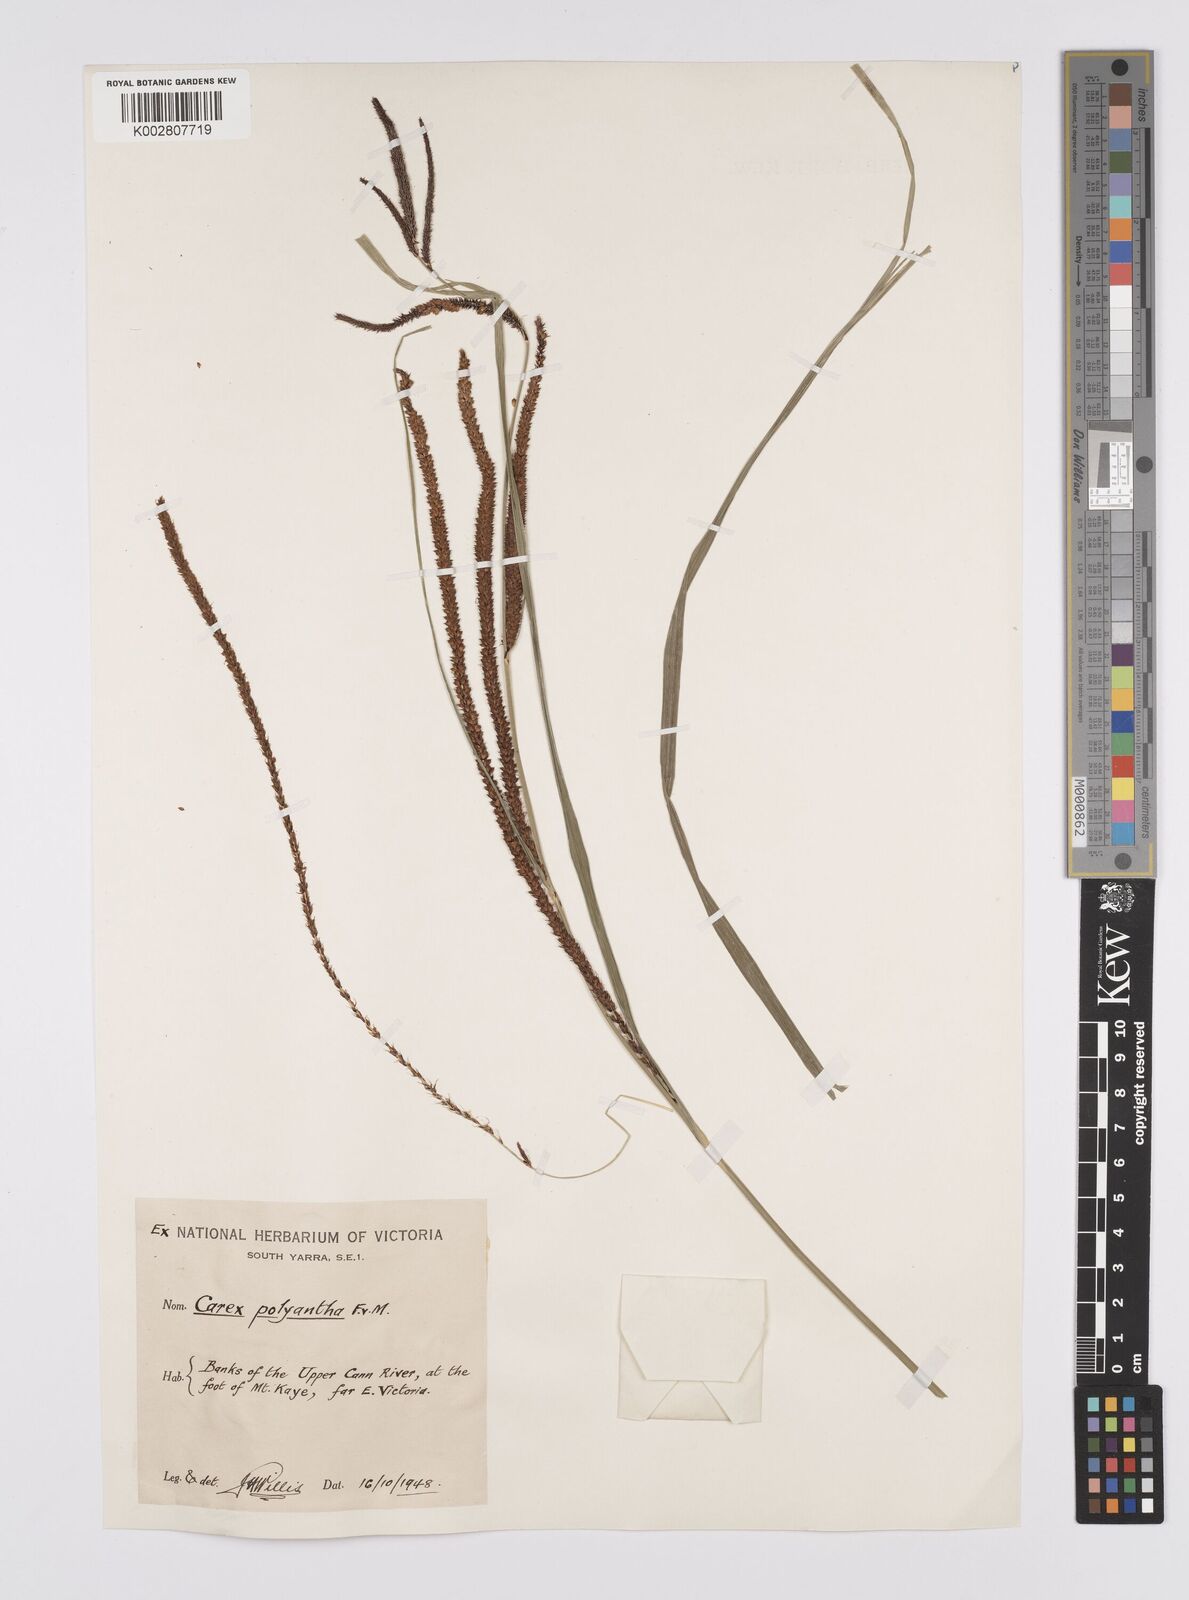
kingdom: Plantae
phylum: Tracheophyta
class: Liliopsida
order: Poales
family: Cyperaceae
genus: Carex
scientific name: Carex polyantha
